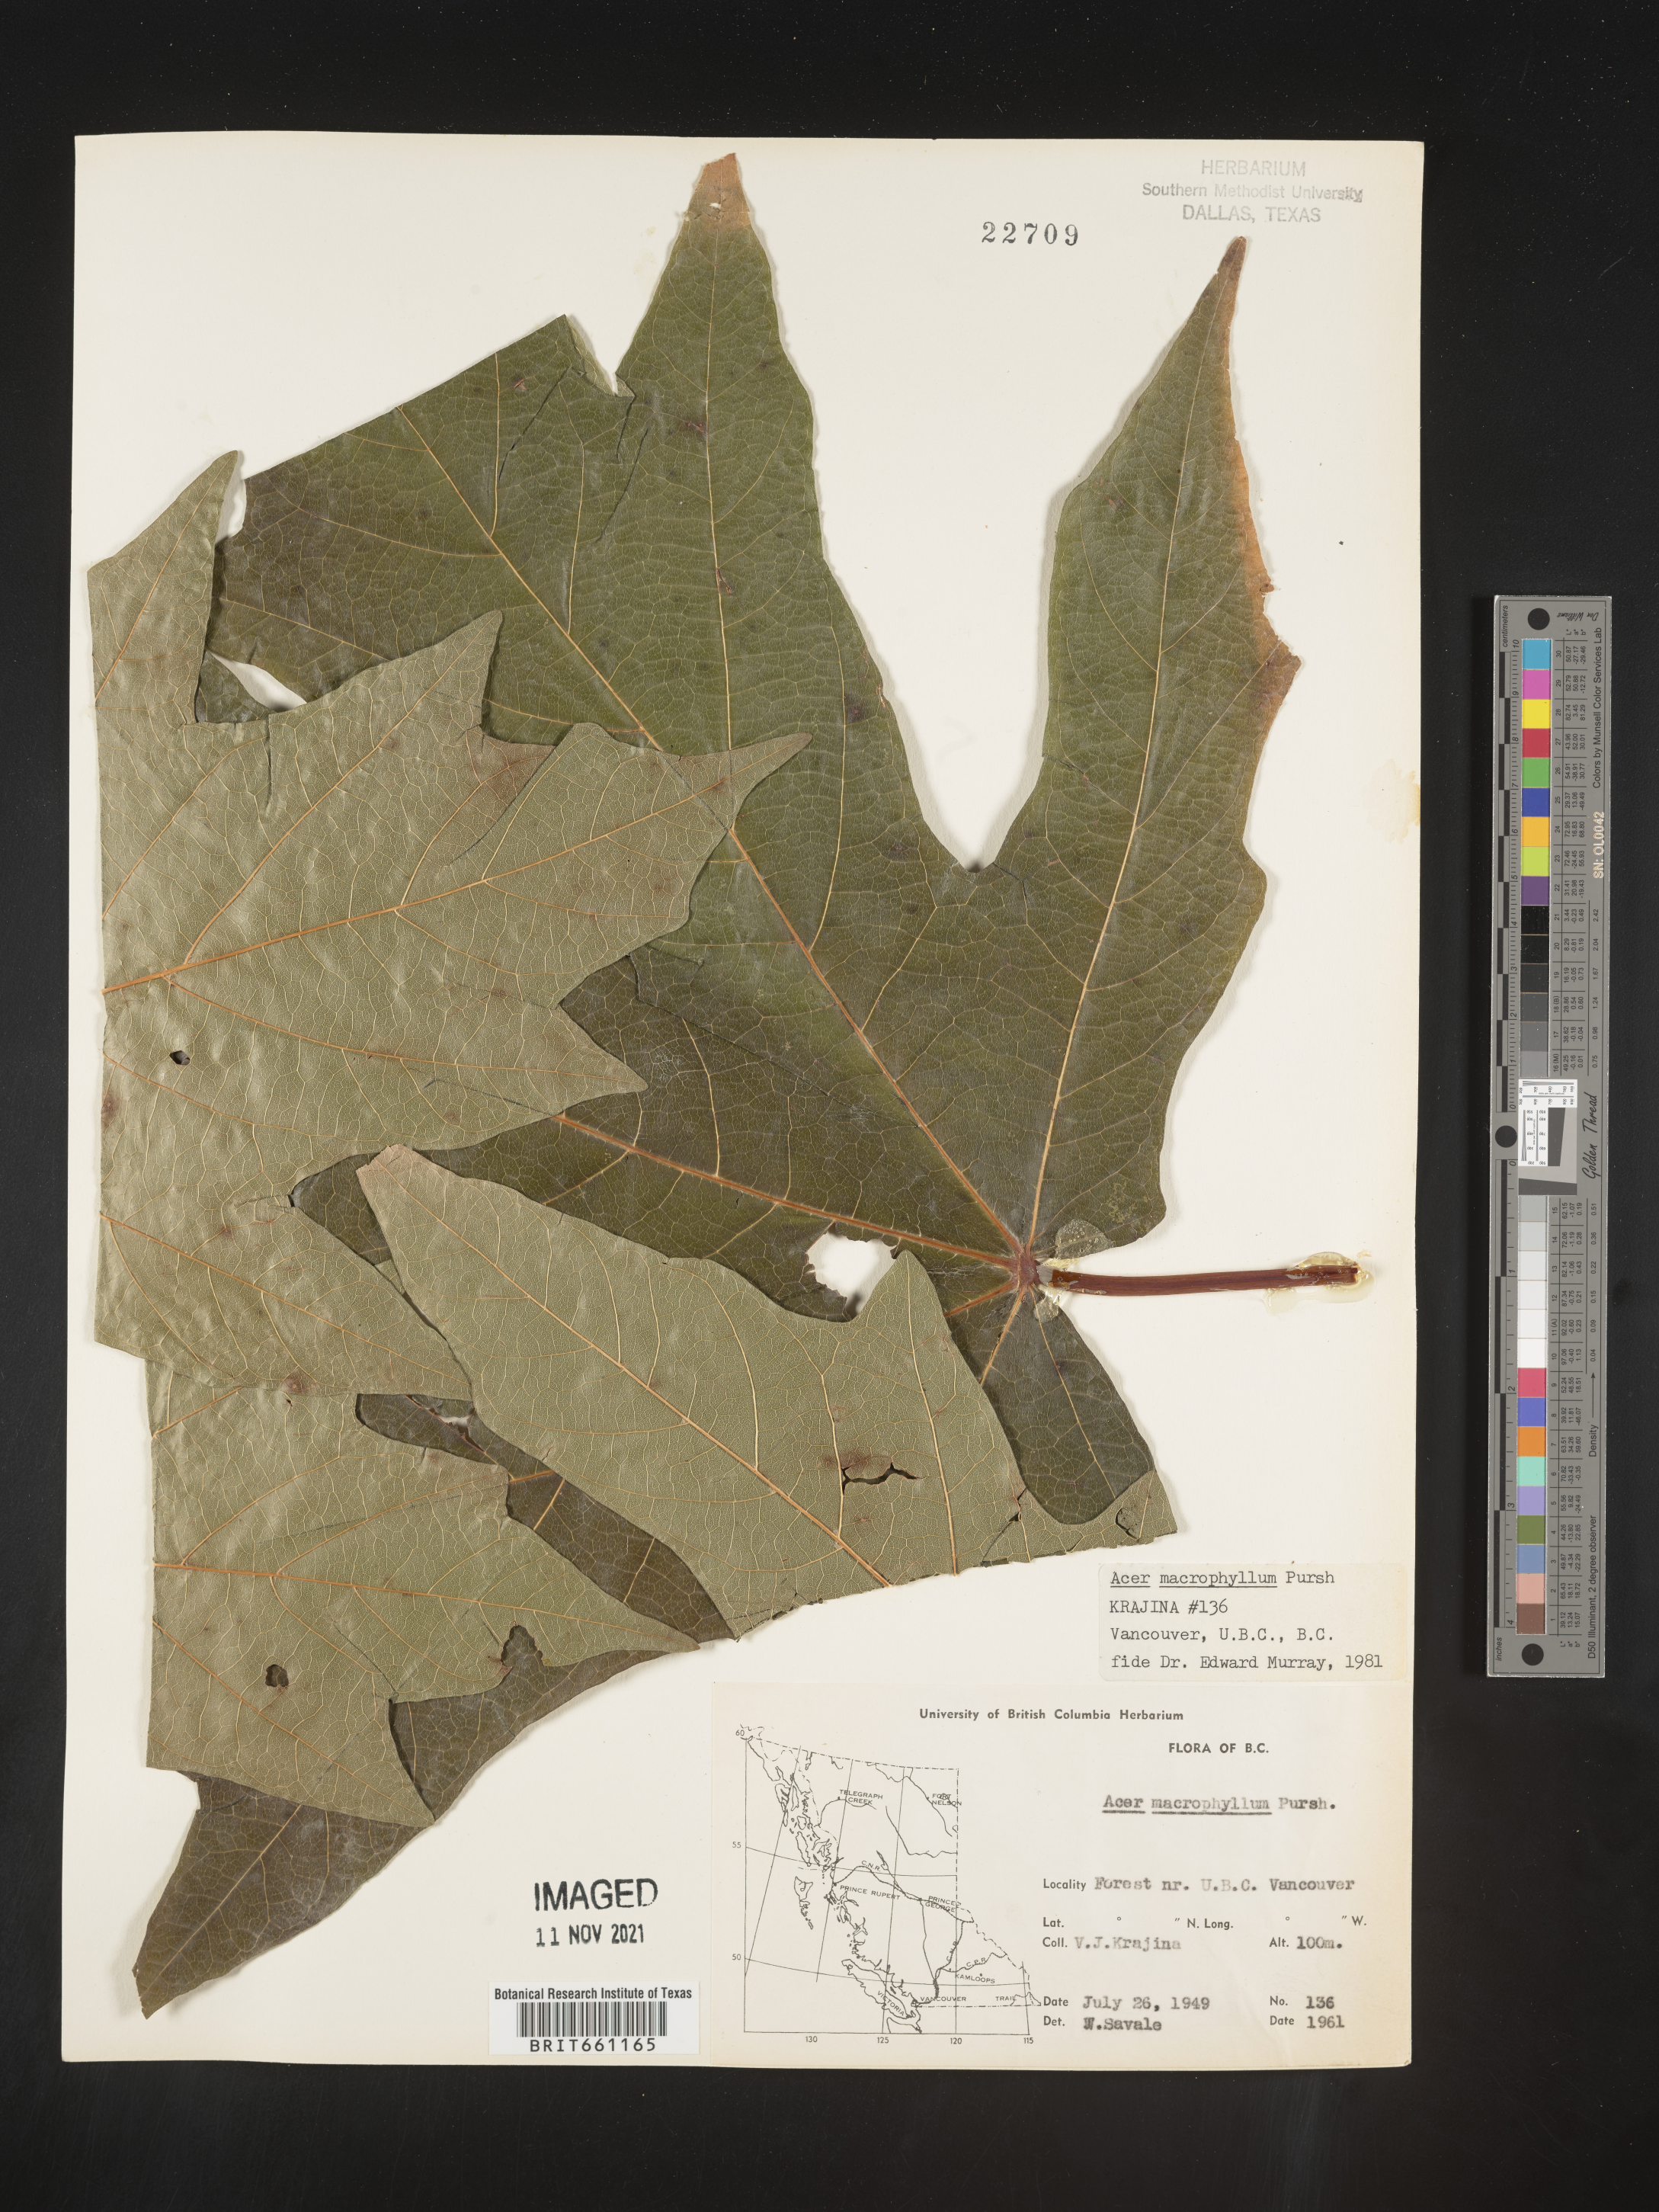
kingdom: Plantae
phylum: Tracheophyta
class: Magnoliopsida
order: Sapindales
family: Sapindaceae
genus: Acer
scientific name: Acer macrophyllum
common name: Oregon maple
